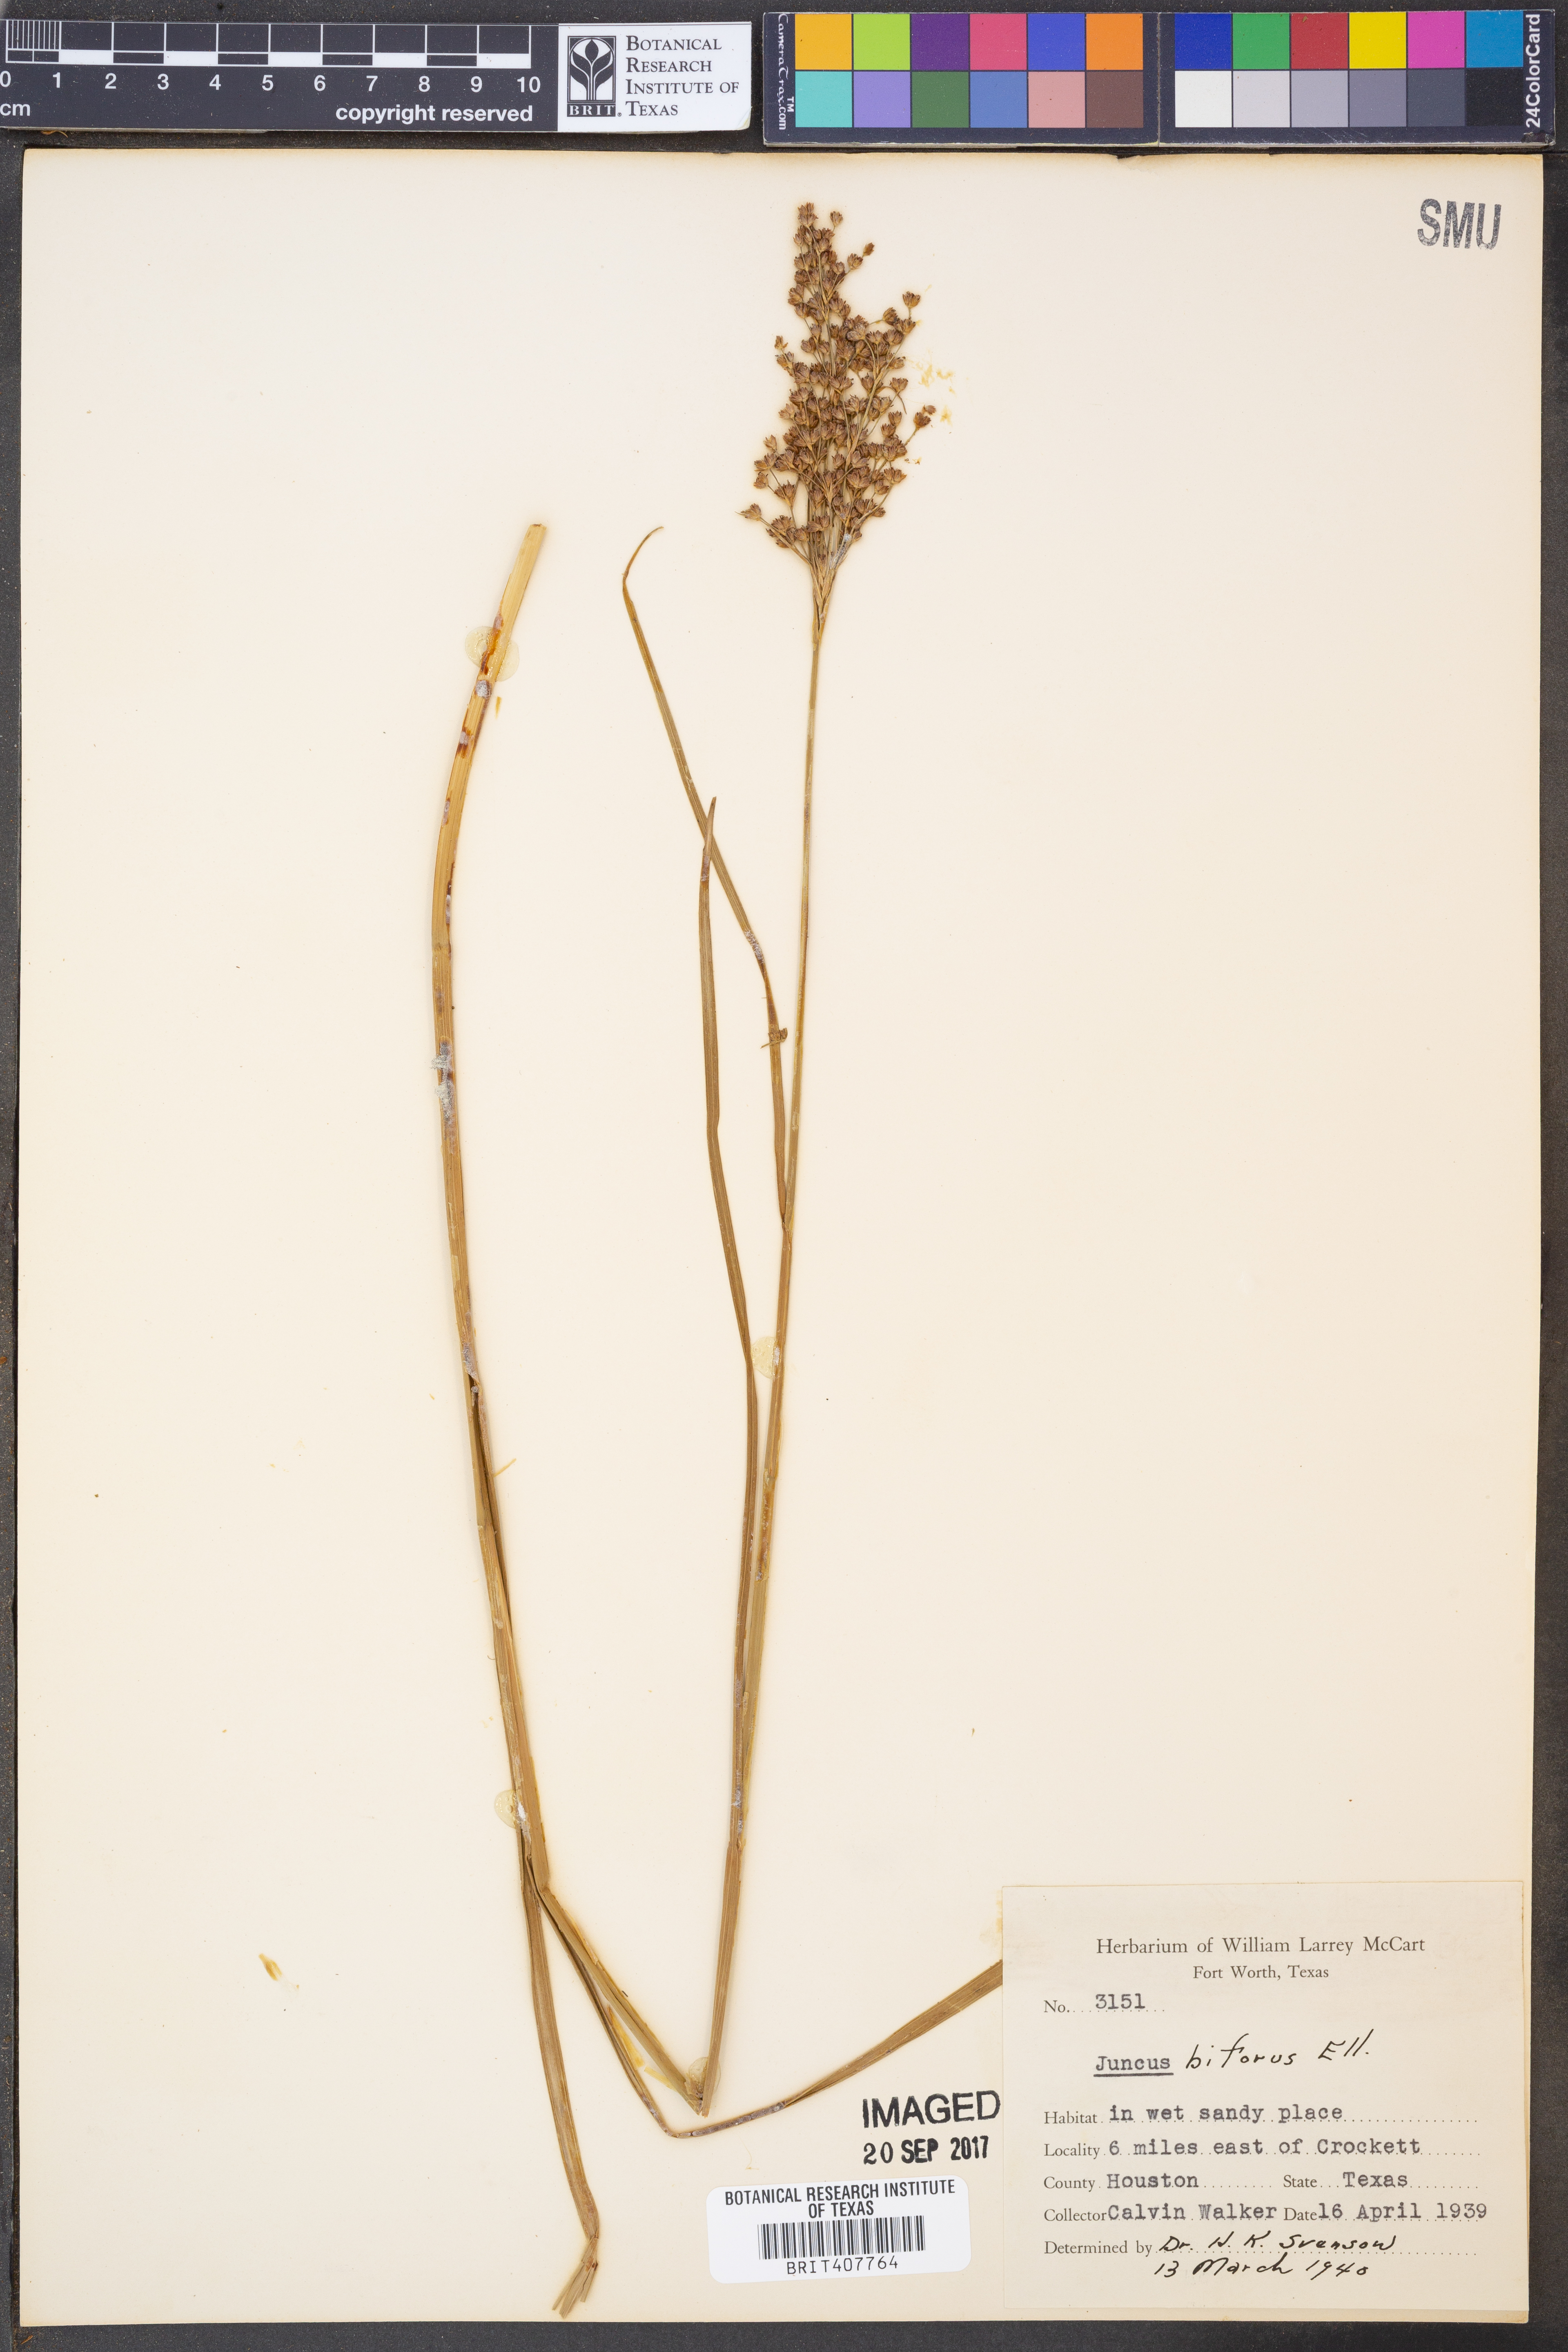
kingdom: Plantae
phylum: Tracheophyta
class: Liliopsida
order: Poales
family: Juncaceae
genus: Juncus
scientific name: Juncus biflorus
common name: Two-flowered rush
